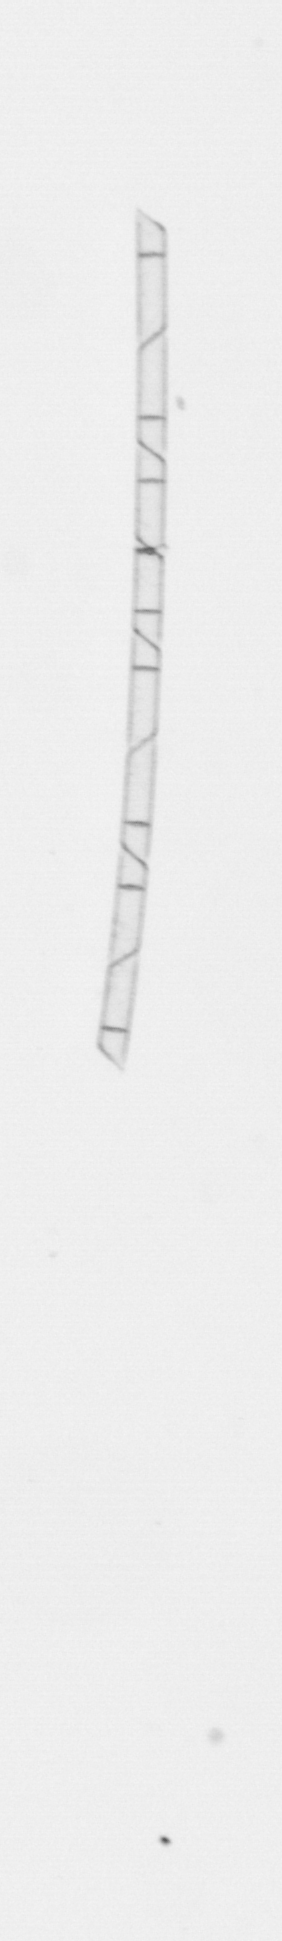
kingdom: Chromista
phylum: Ochrophyta
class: Bacillariophyceae
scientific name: Bacillariophyceae
